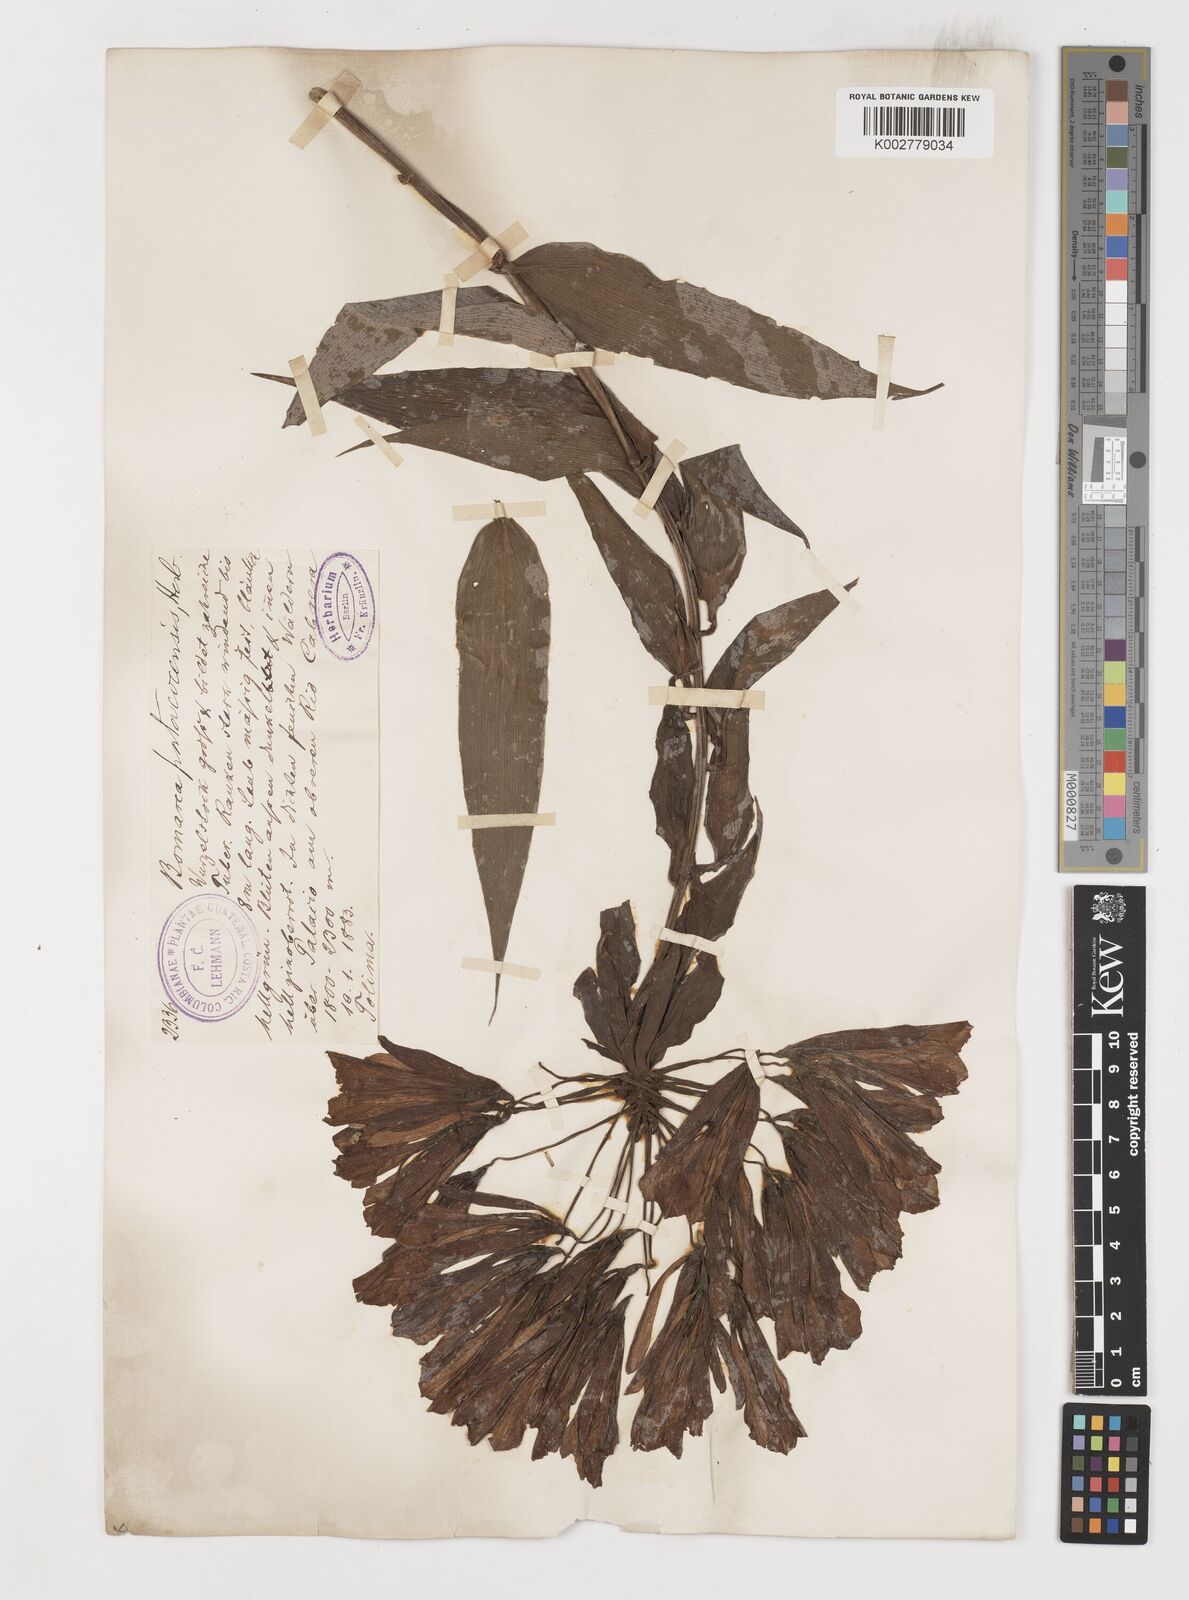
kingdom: Plantae
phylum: Tracheophyta
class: Liliopsida
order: Liliales
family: Alstroemeriaceae
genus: Bomarea
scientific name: Bomarea patinii
